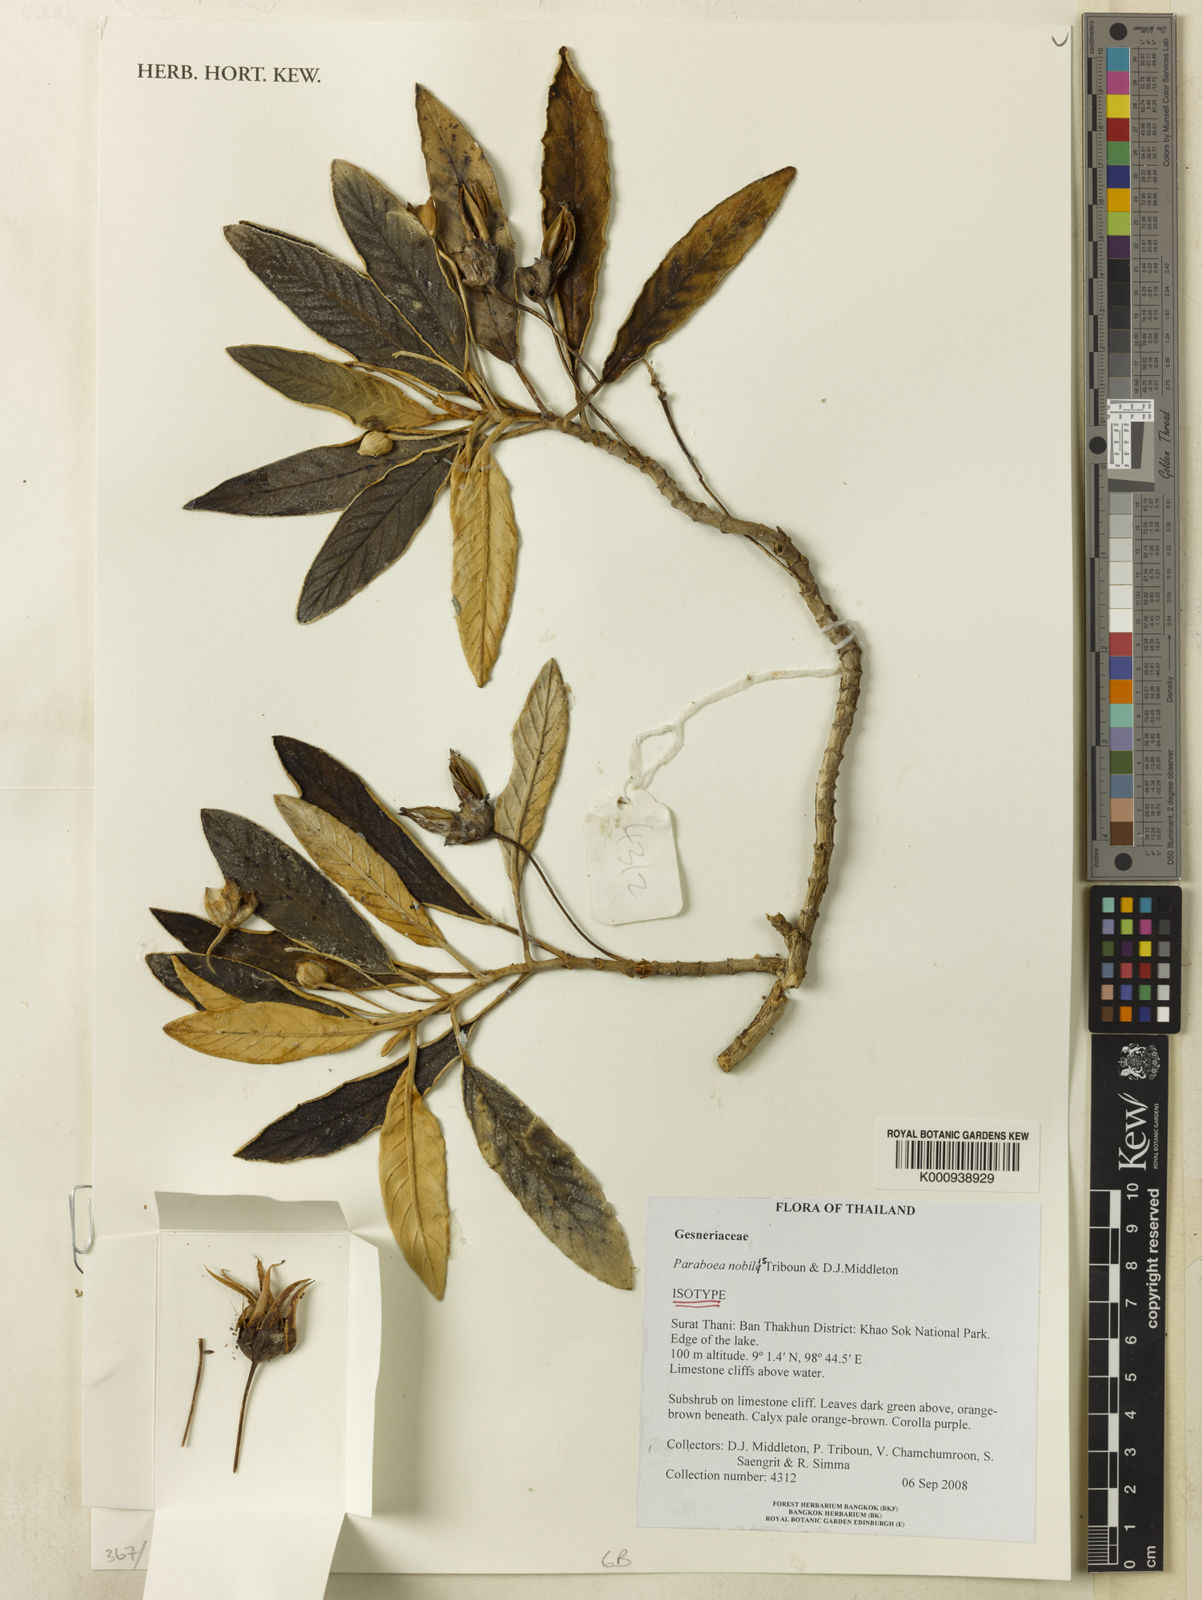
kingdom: Plantae
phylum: Tracheophyta
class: Magnoliopsida
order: Lamiales
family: Gesneriaceae
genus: Paraboea
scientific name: Paraboea nobilis
